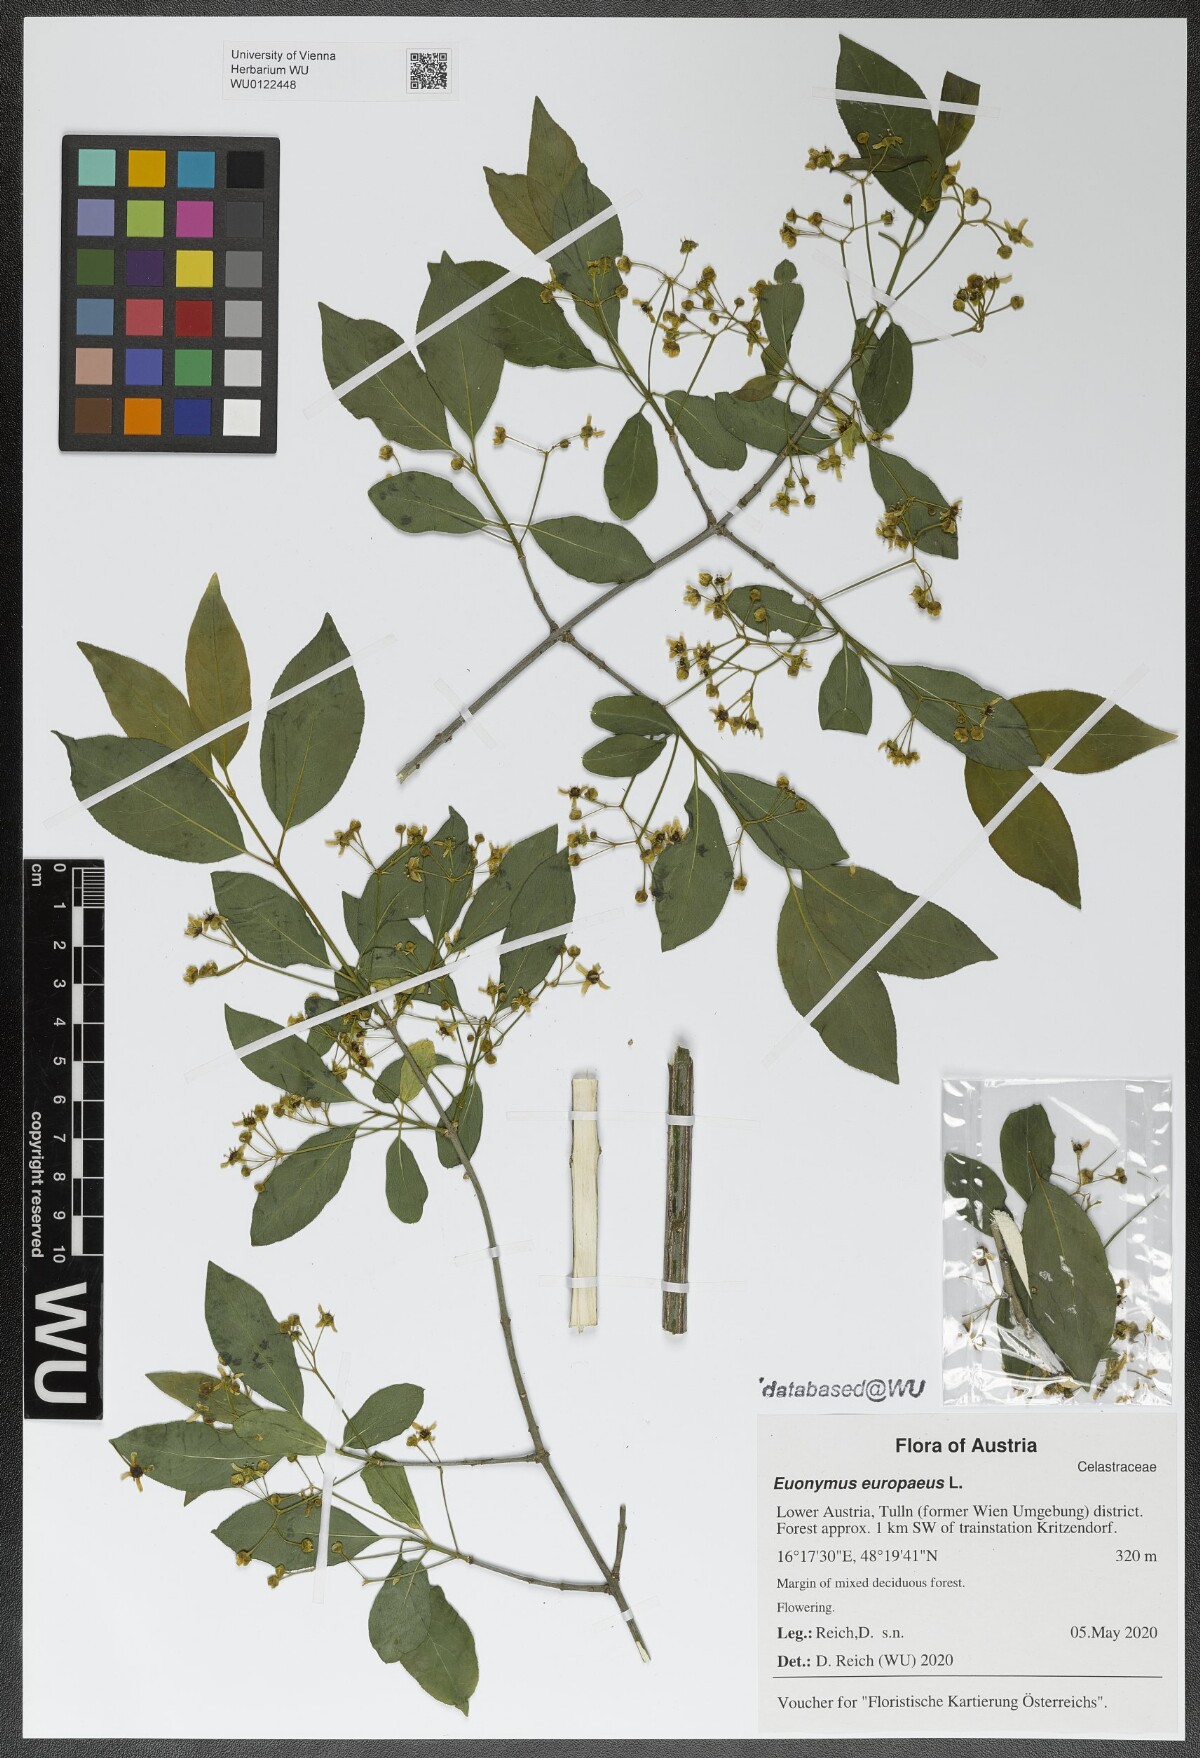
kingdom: Plantae
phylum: Tracheophyta
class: Magnoliopsida
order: Celastrales
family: Celastraceae
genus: Euonymus
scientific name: Euonymus europaeus
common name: Spindle
